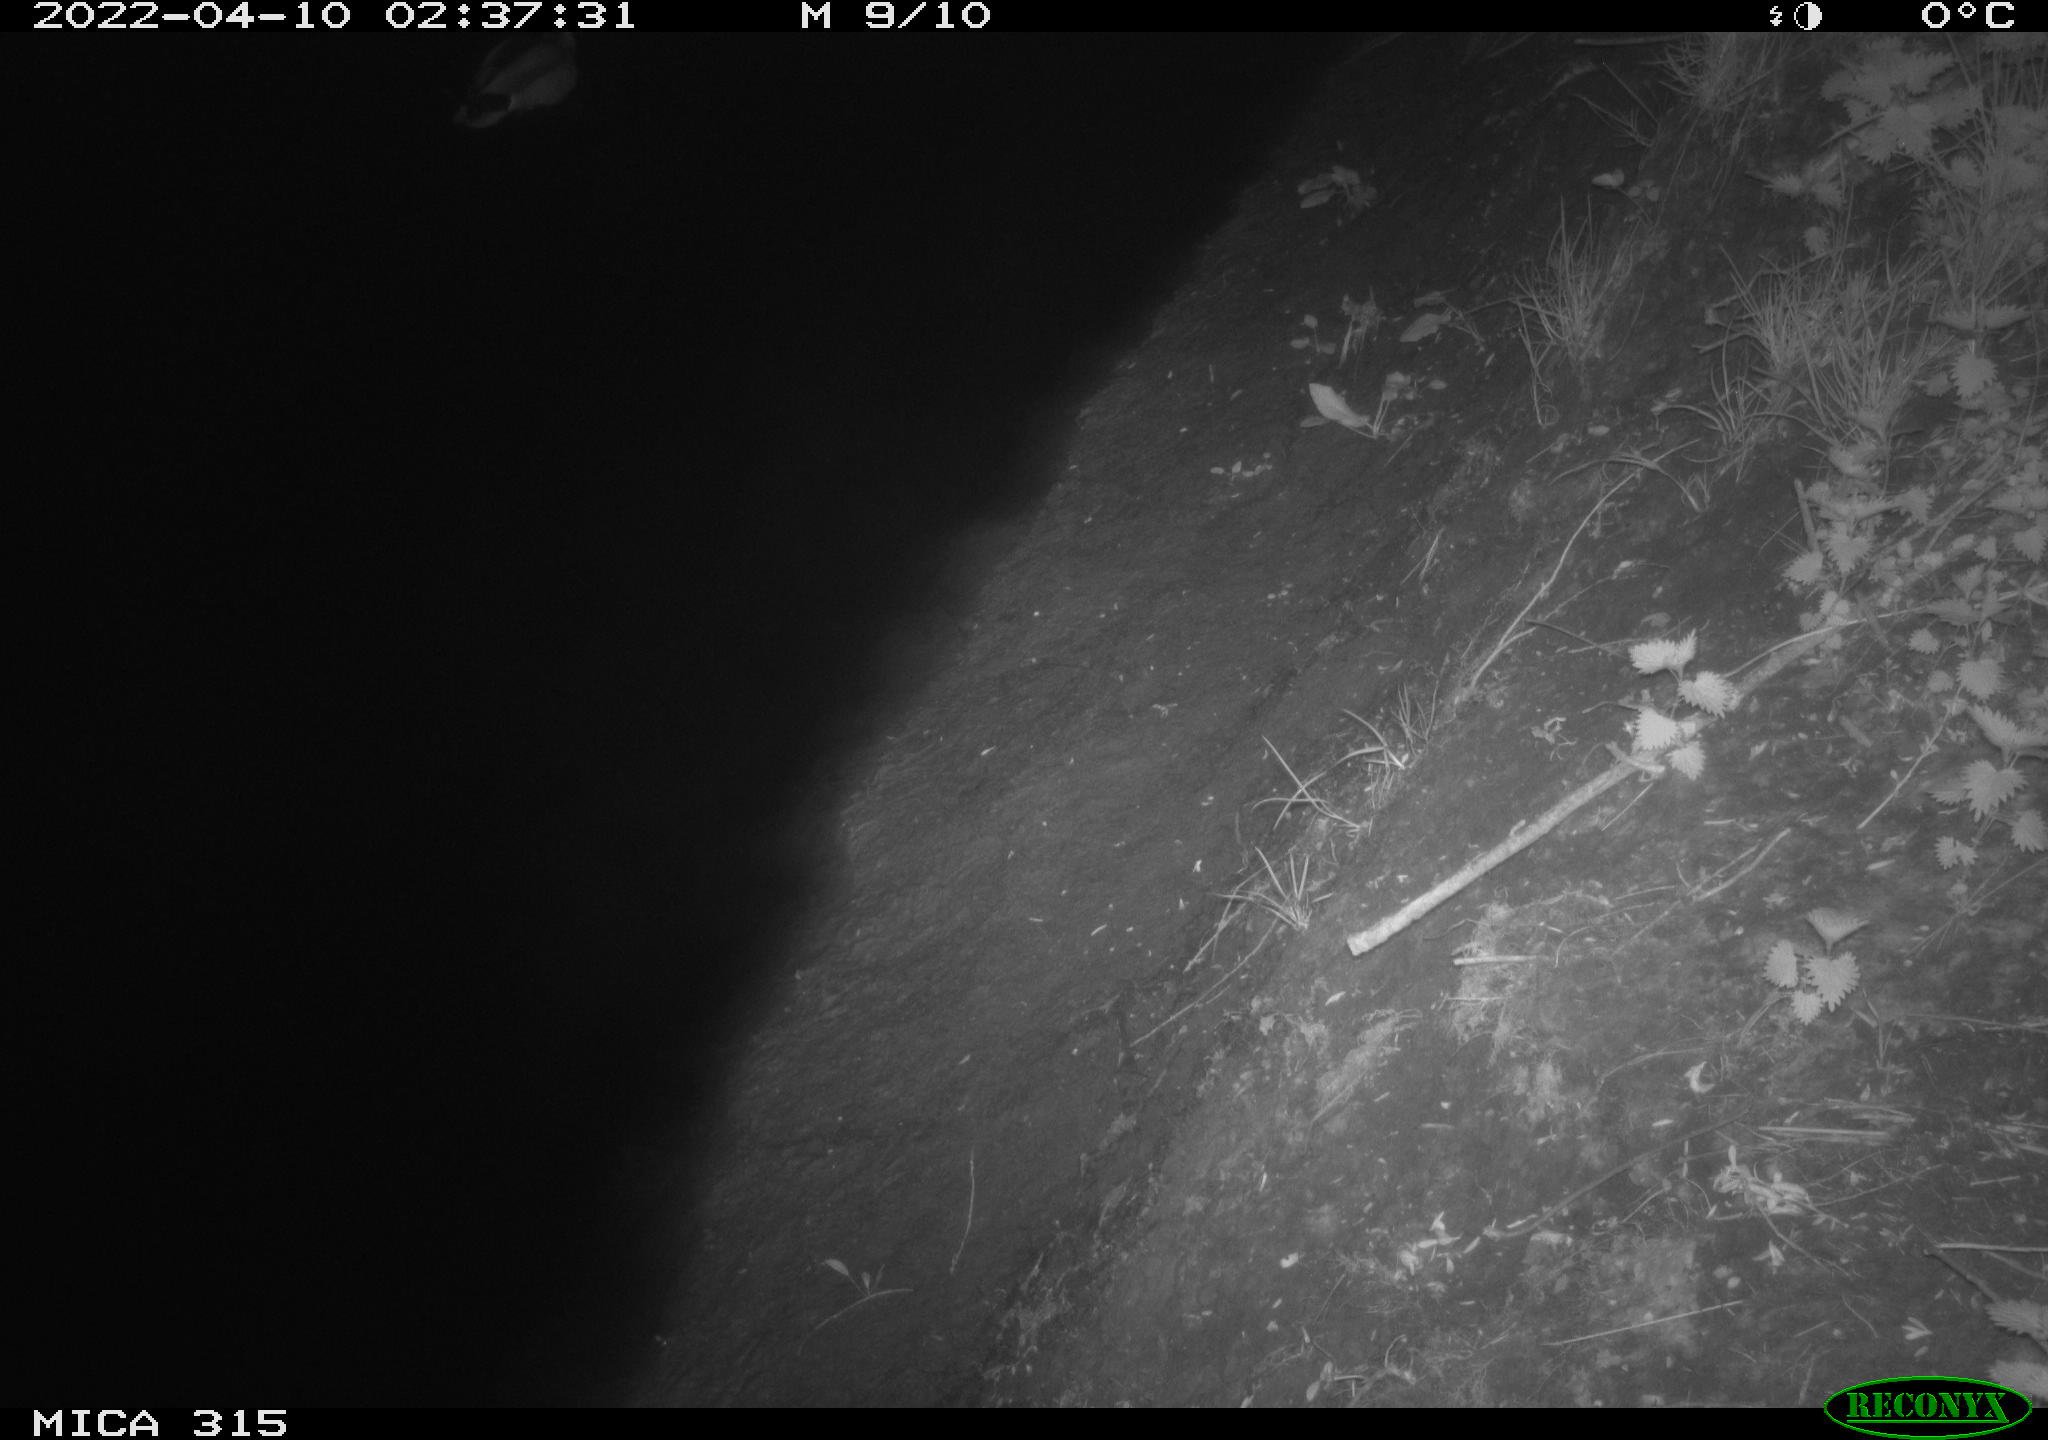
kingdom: Animalia
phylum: Chordata
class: Aves
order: Anseriformes
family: Anatidae
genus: Anas
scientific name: Anas platyrhynchos
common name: Mallard
